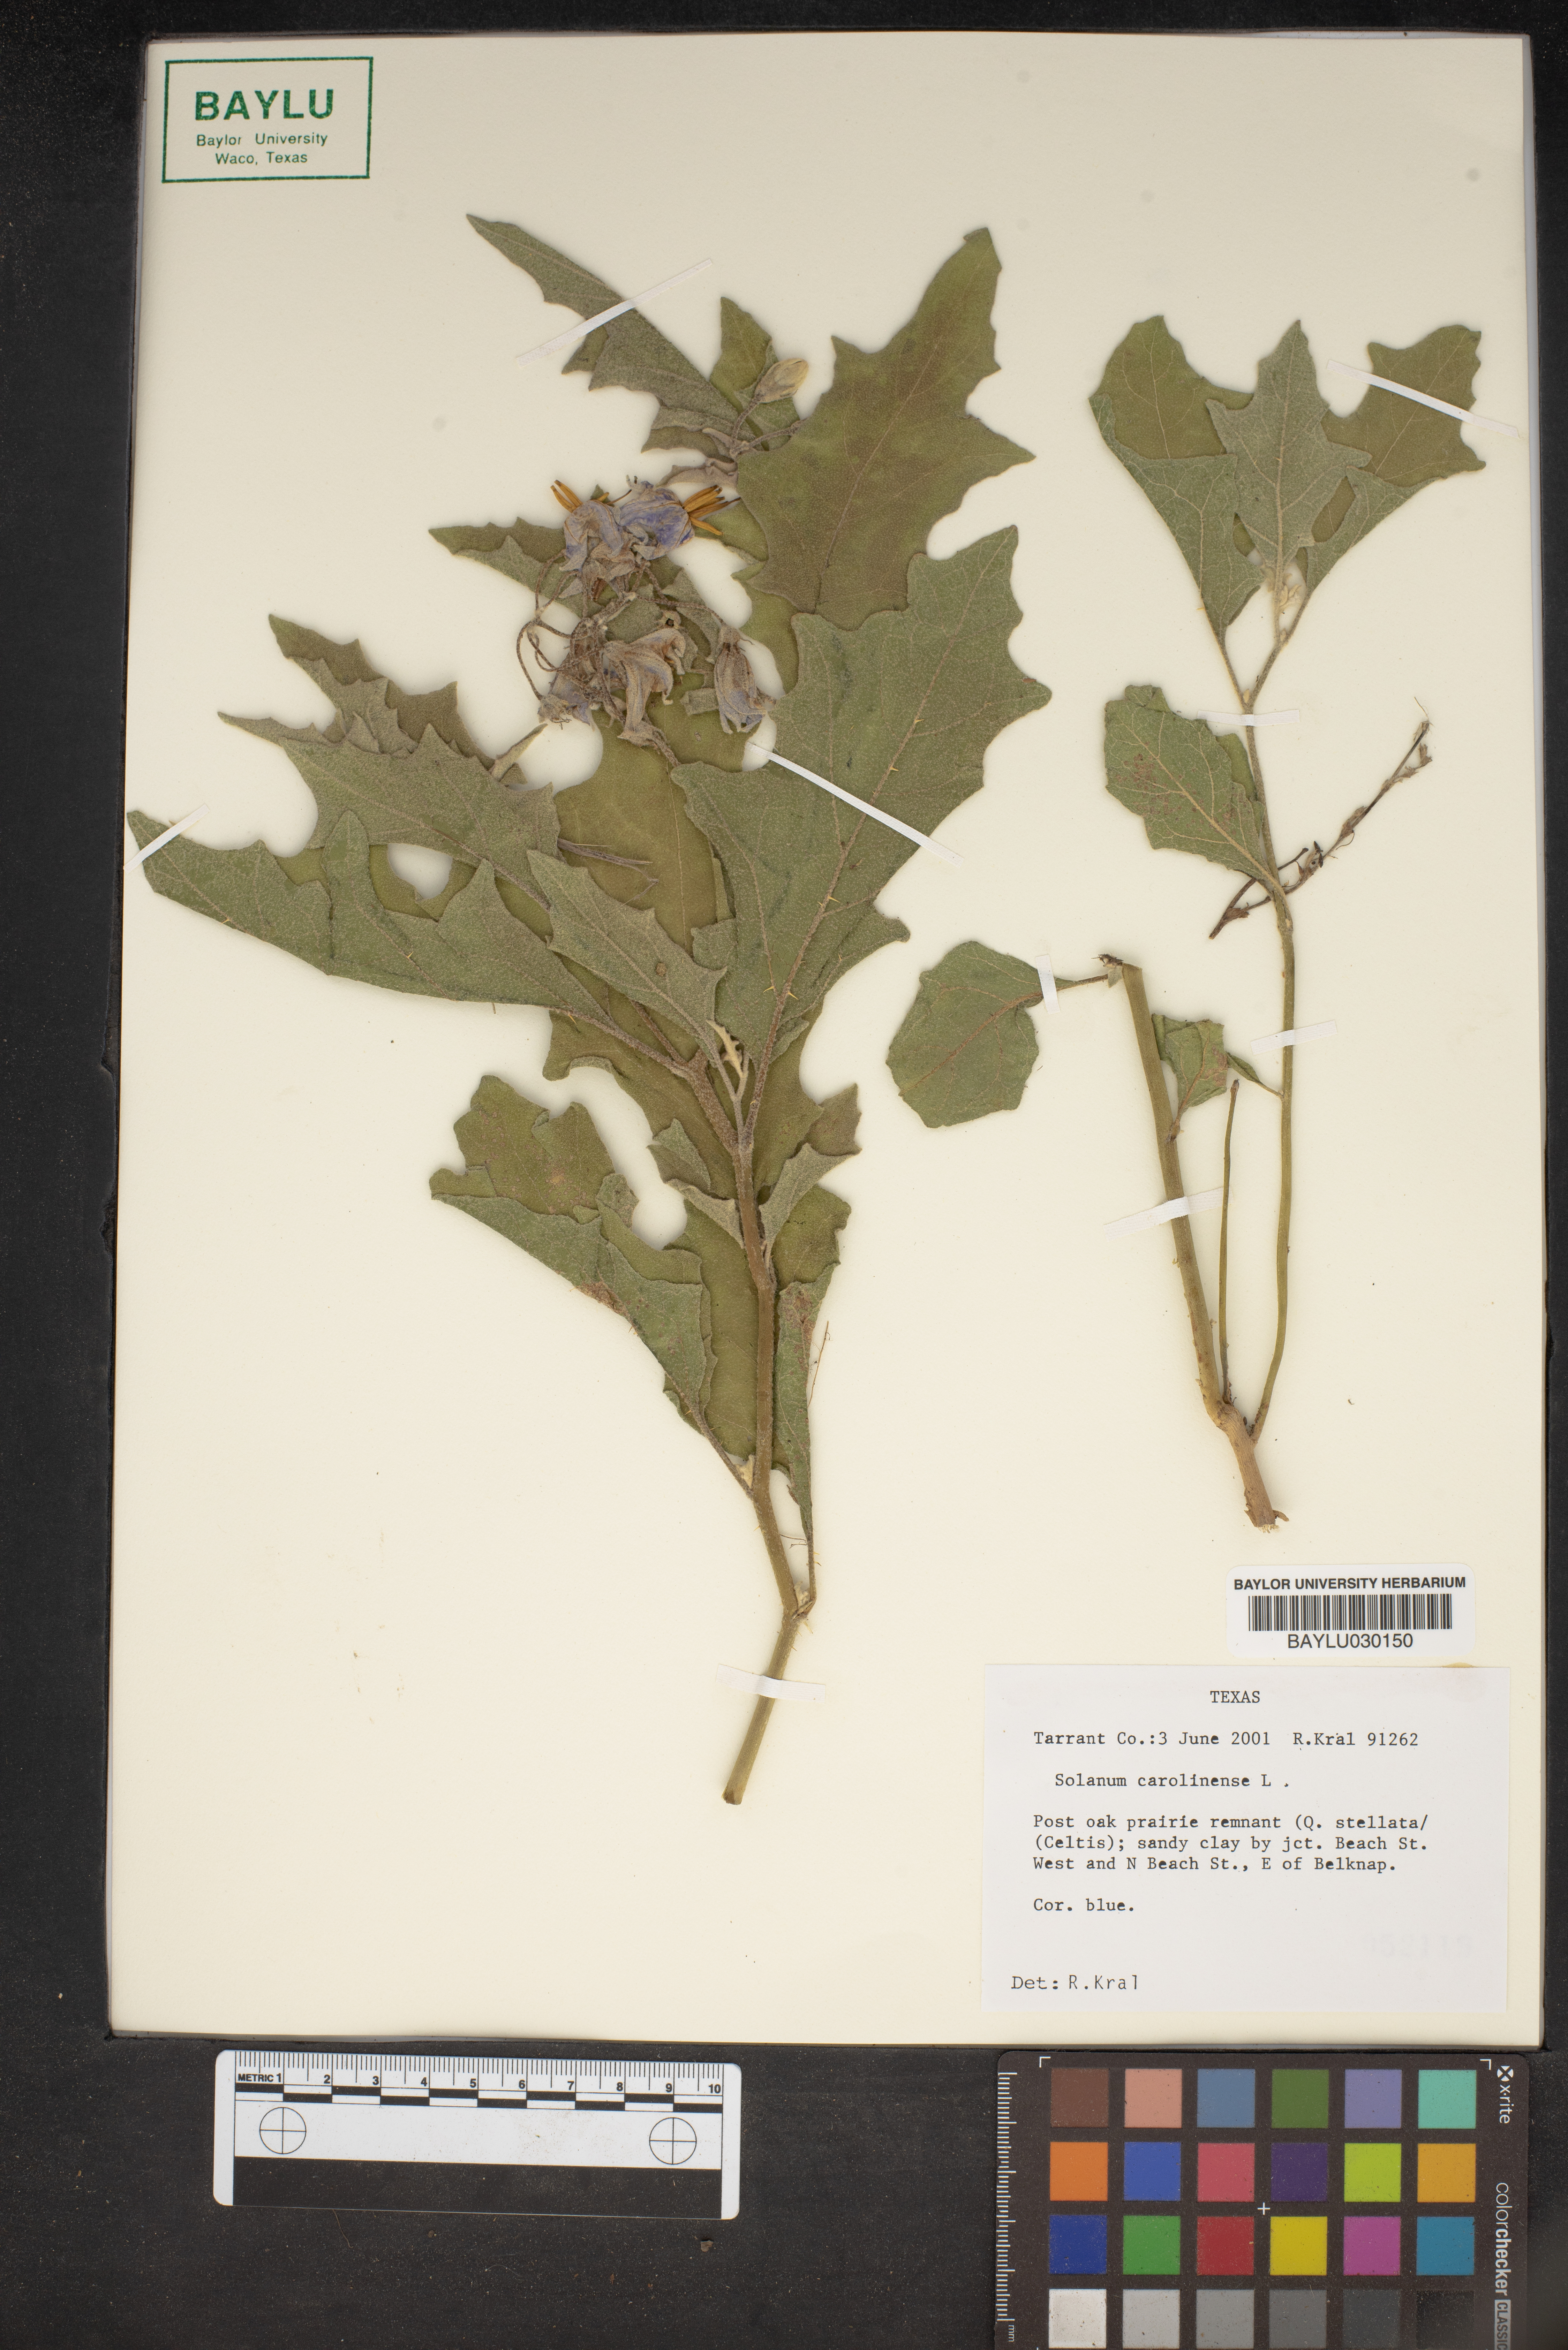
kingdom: Plantae
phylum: Tracheophyta
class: Magnoliopsida
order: Solanales
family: Solanaceae
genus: Solanum
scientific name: Solanum carolinense
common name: Horse-nettle
